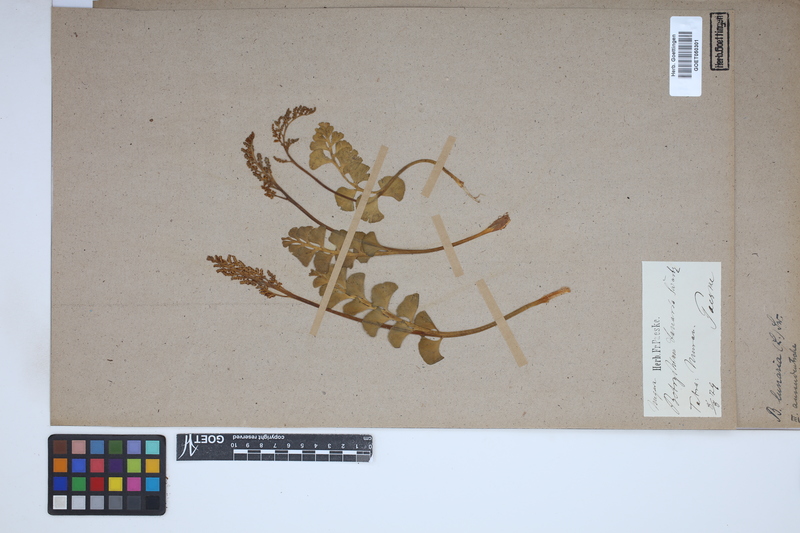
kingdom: Plantae
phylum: Tracheophyta
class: Polypodiopsida
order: Ophioglossales
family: Ophioglossaceae
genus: Botrychium
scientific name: Botrychium lunaria
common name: Moonwort
